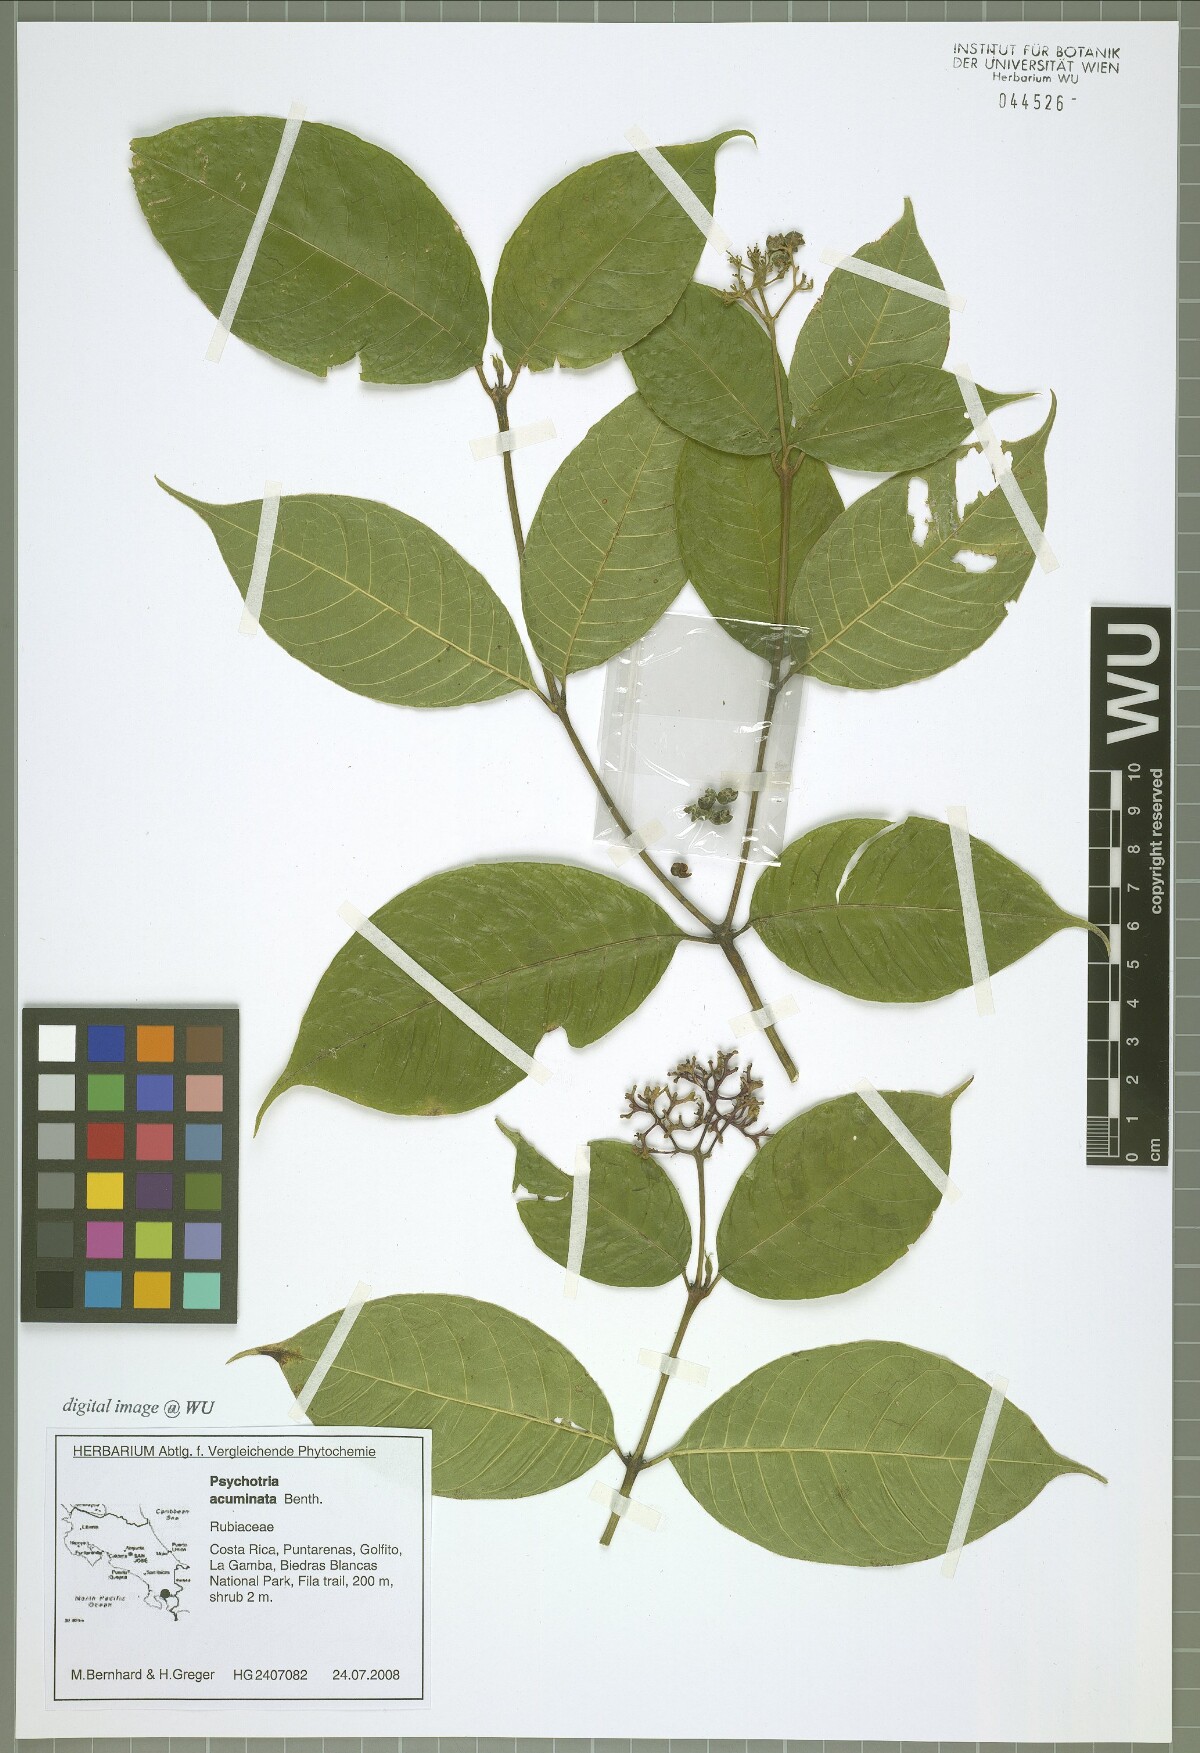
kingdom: Plantae
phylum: Tracheophyta
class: Magnoliopsida
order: Gentianales
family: Rubiaceae
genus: Palicourea
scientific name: Palicourea acuminata
